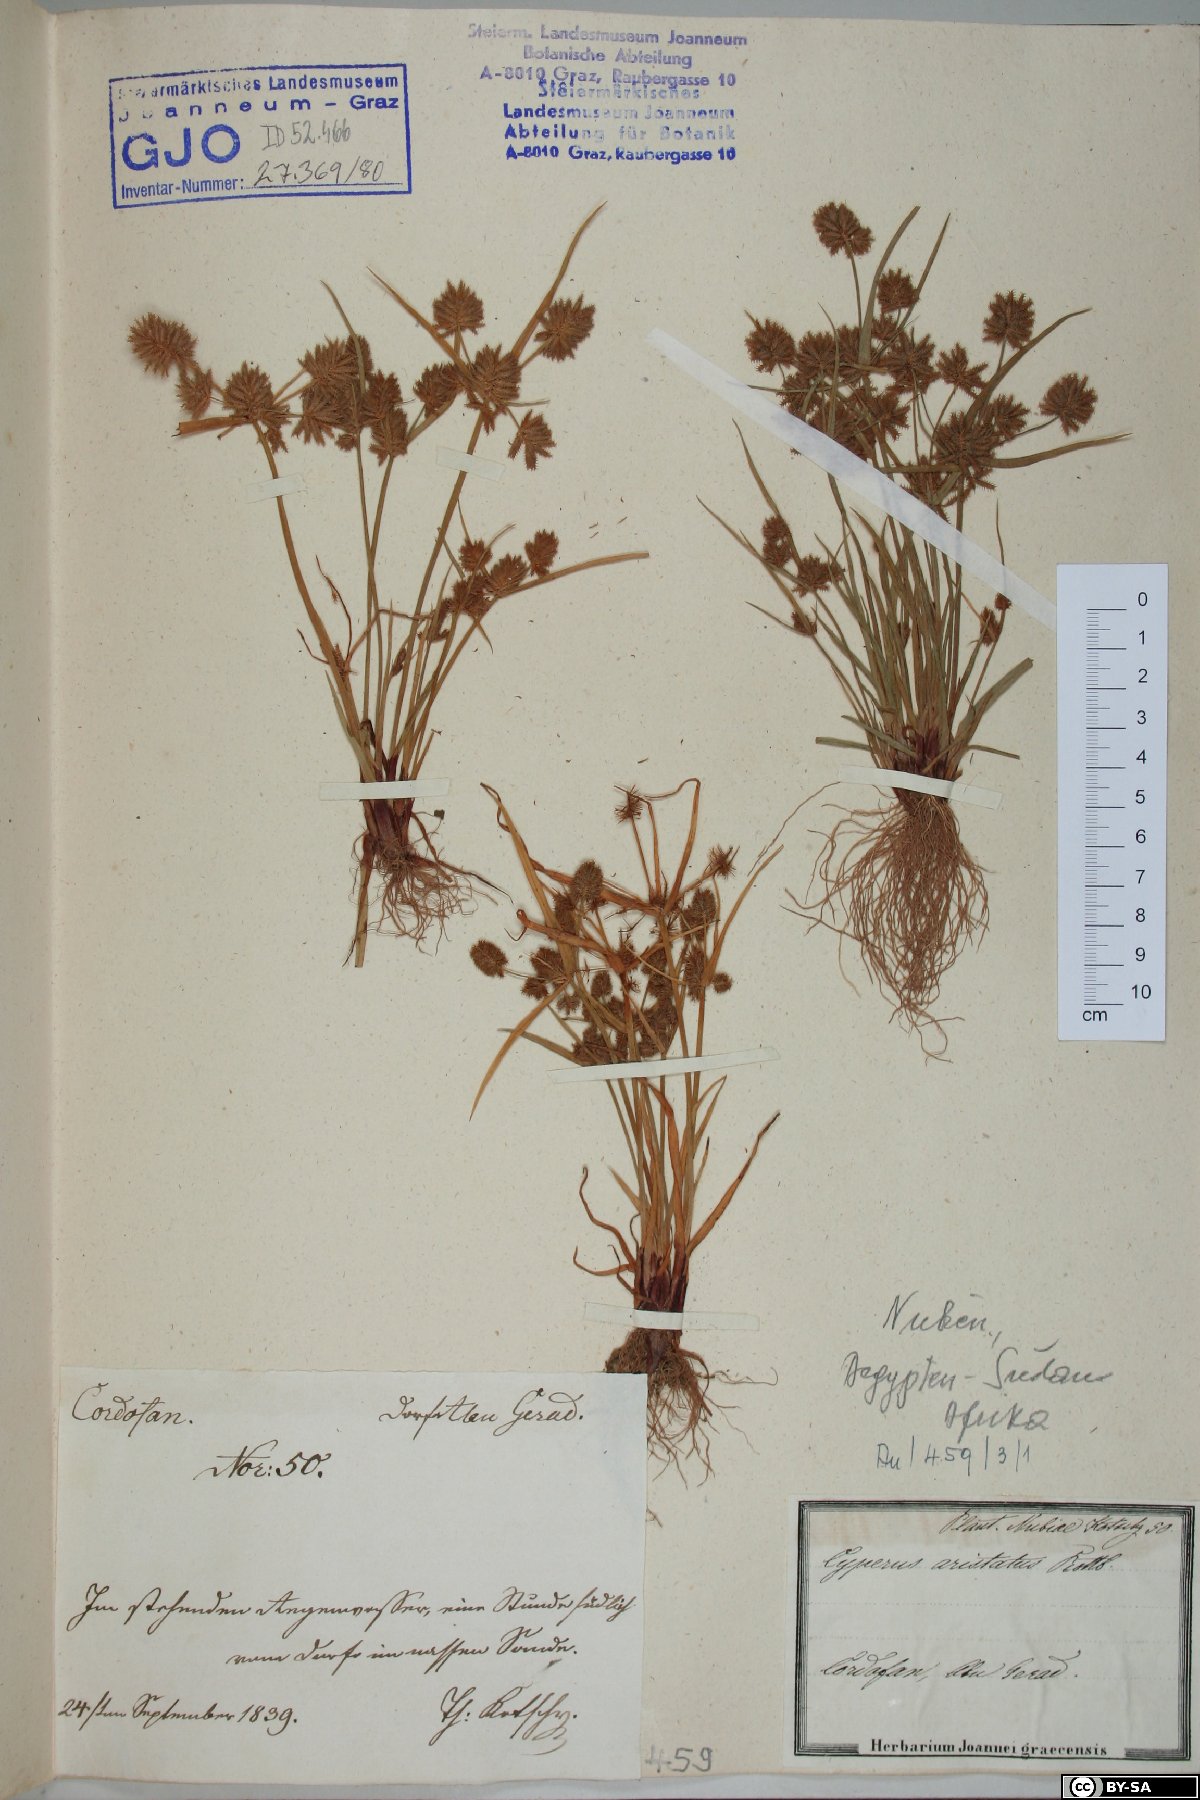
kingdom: Plantae
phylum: Tracheophyta
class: Liliopsida
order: Poales
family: Cyperaceae
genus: Cyperus
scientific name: Cyperus squarrosus
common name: Awned cyperus
